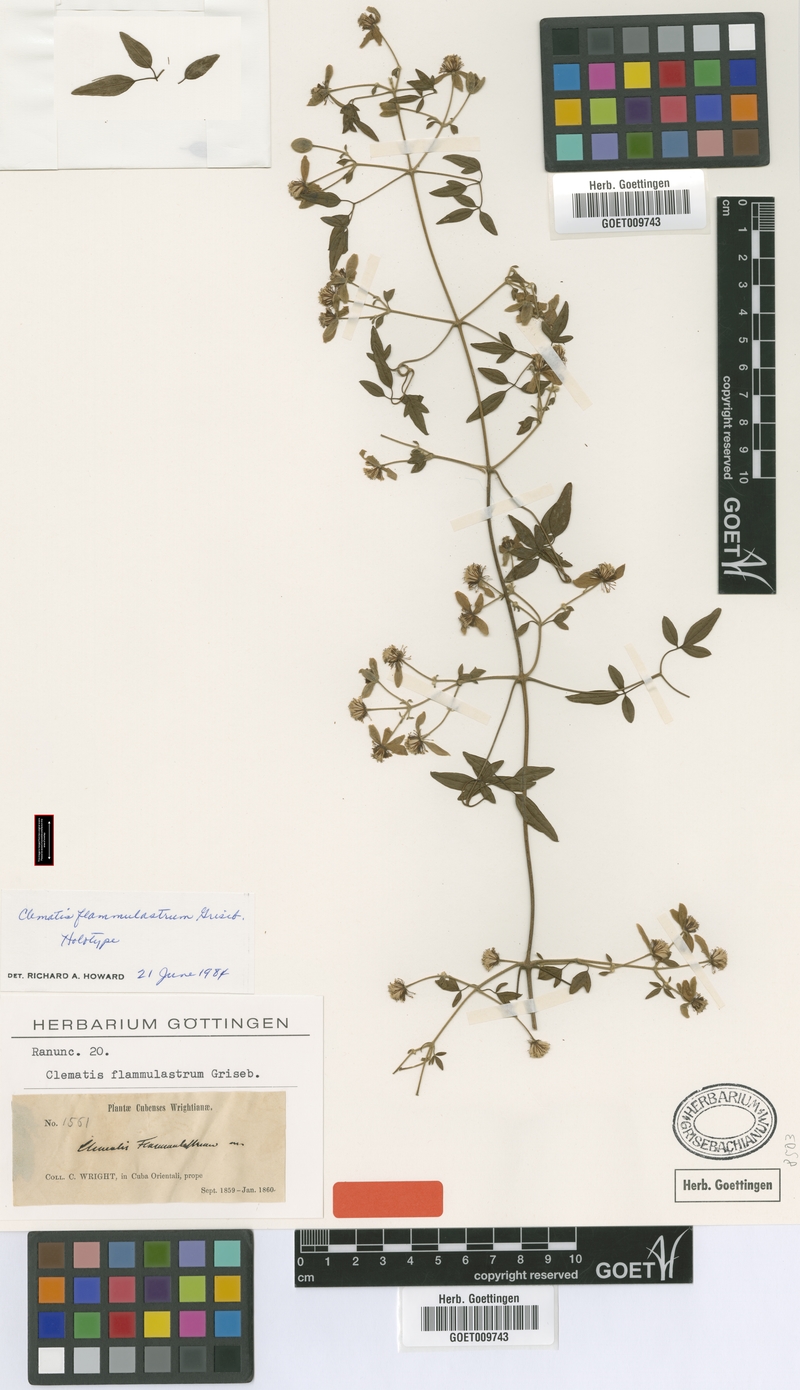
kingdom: Plantae
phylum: Tracheophyta
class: Magnoliopsida
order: Ranunculales
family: Ranunculaceae
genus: Clematis
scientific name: Clematis flammulastrum
